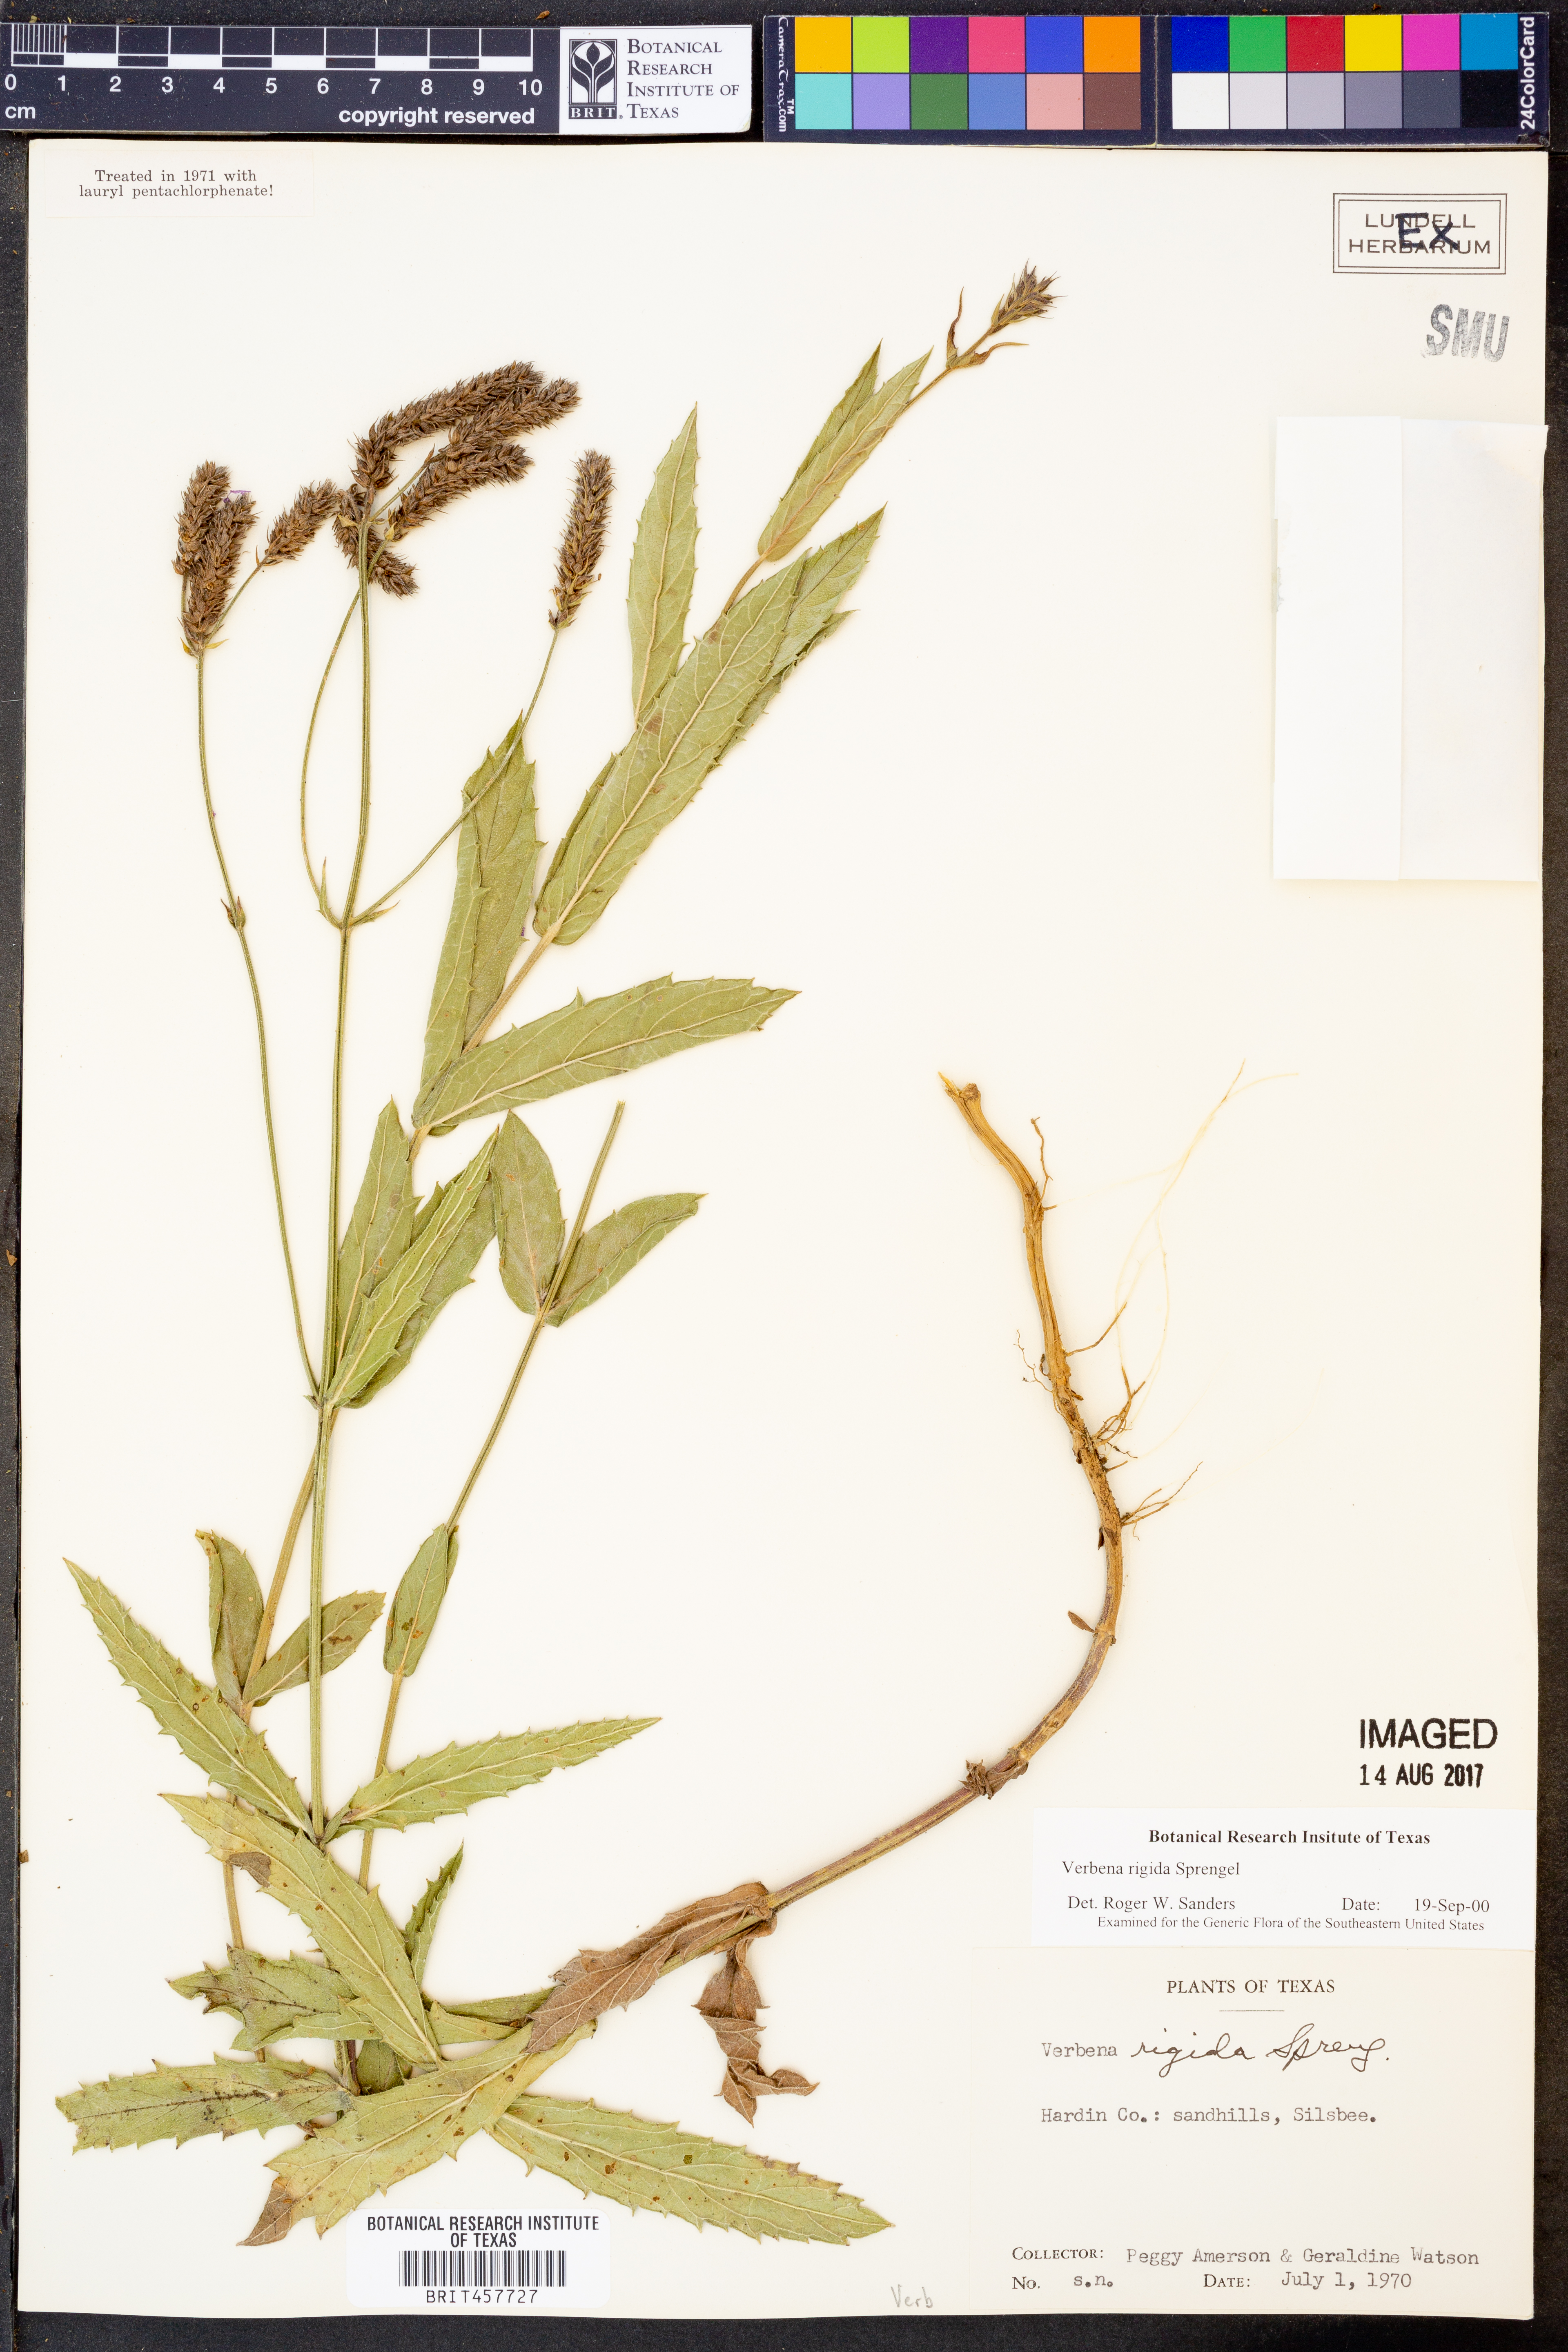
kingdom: Plantae
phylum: Tracheophyta
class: Magnoliopsida
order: Lamiales
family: Verbenaceae
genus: Verbena
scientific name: Verbena rigida
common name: Slender vervain
